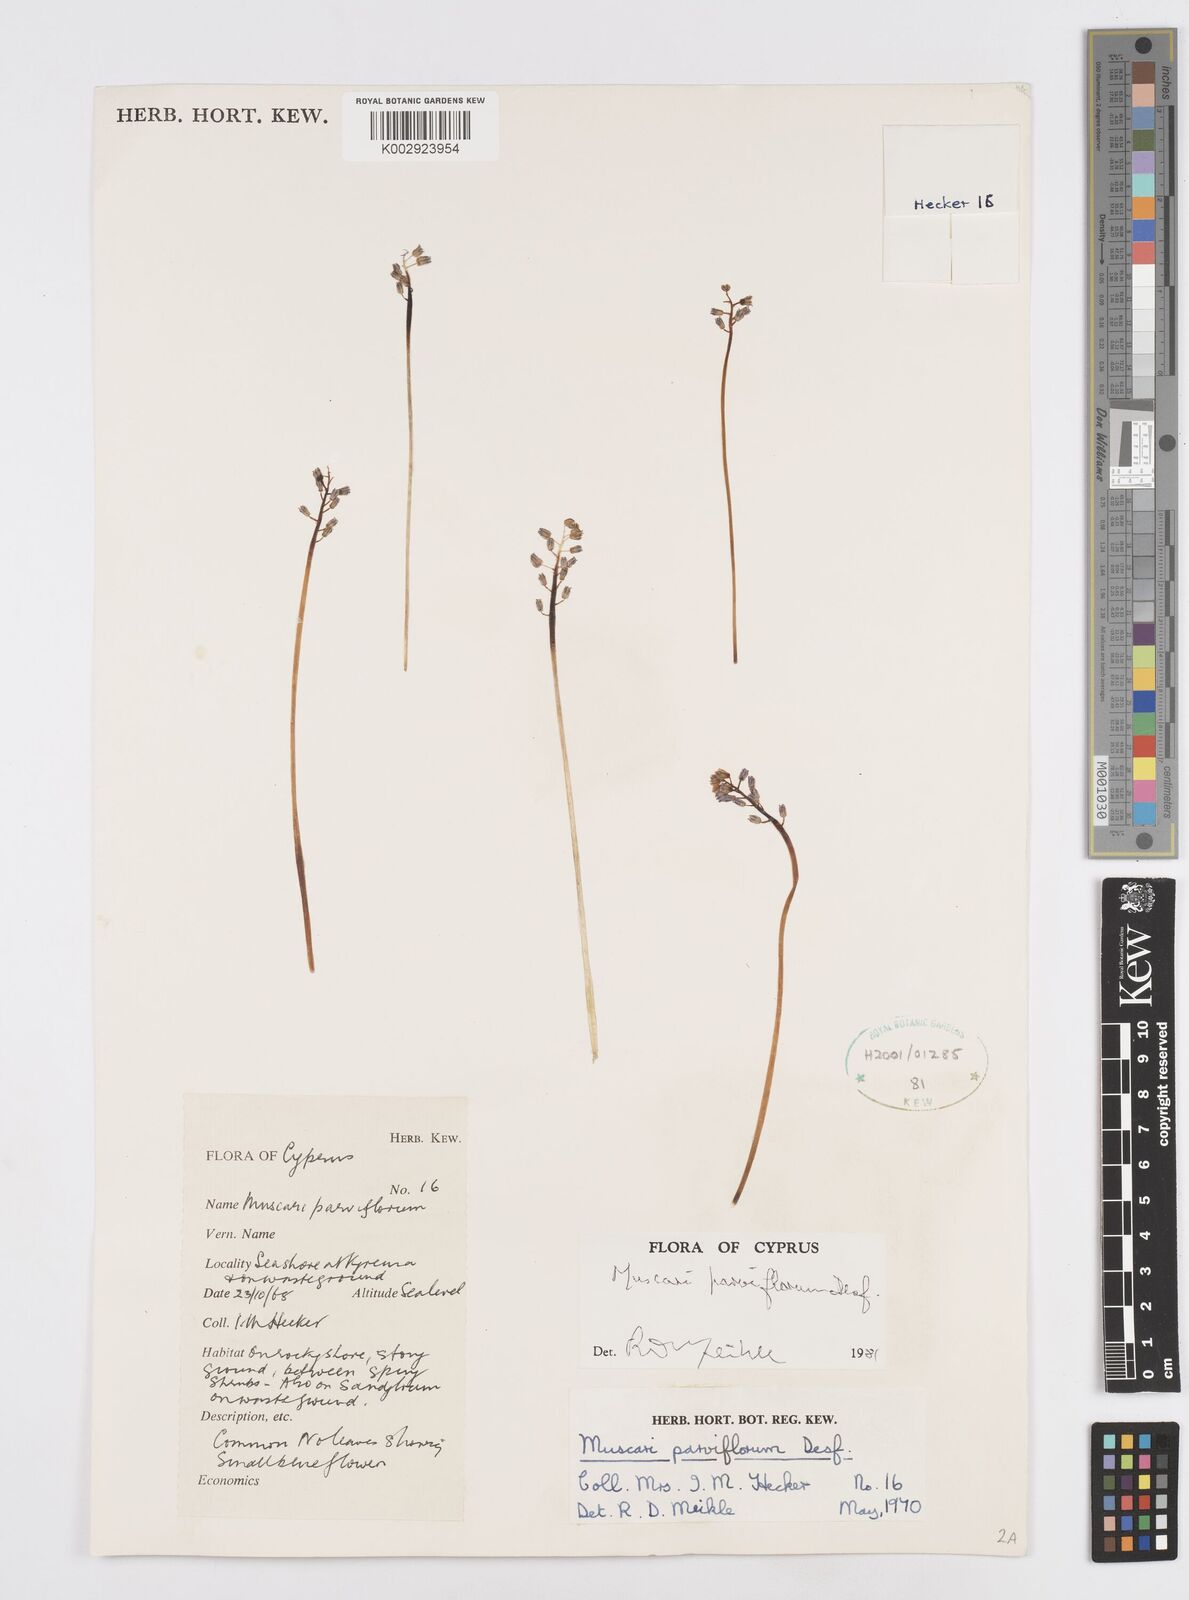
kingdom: Plantae
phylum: Tracheophyta
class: Liliopsida
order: Asparagales
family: Asparagaceae
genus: Muscari
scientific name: Muscari parviflorum
